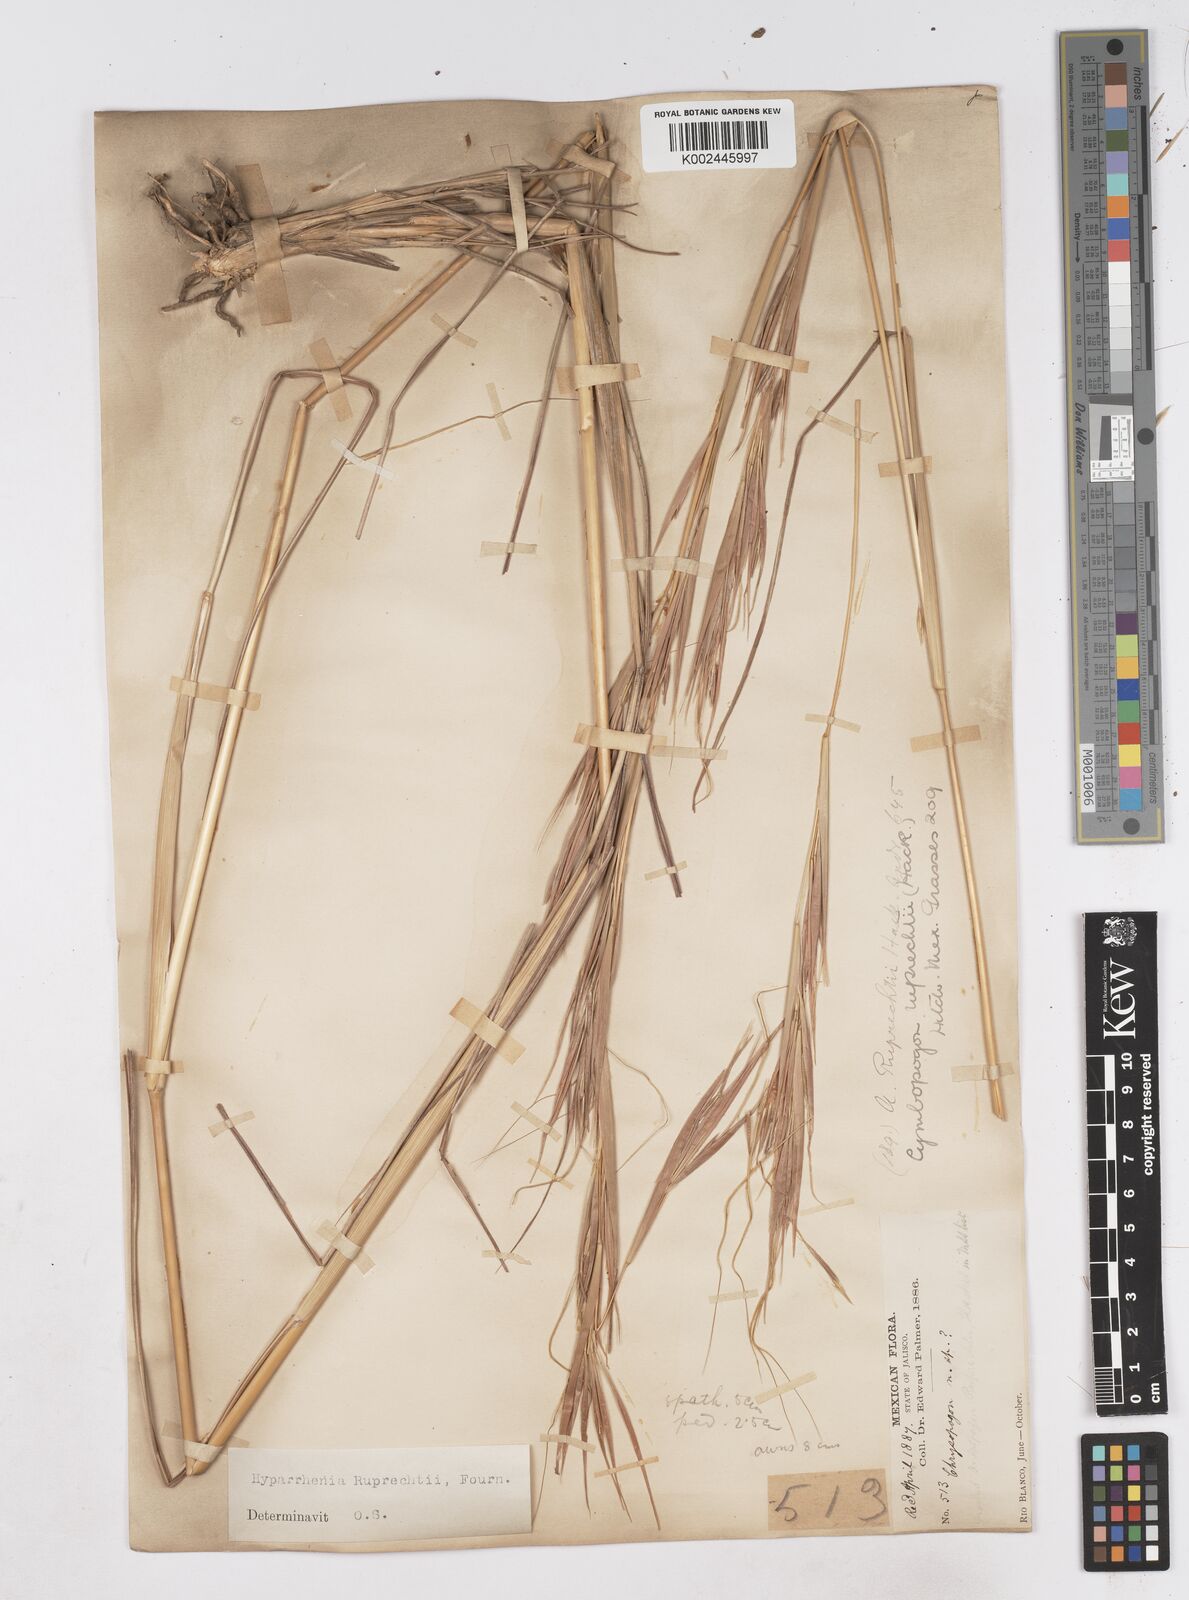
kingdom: Plantae
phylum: Tracheophyta
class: Liliopsida
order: Poales
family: Poaceae
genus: Hyperthelia
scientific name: Hyperthelia dissoluta
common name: Yellow thatching grass
